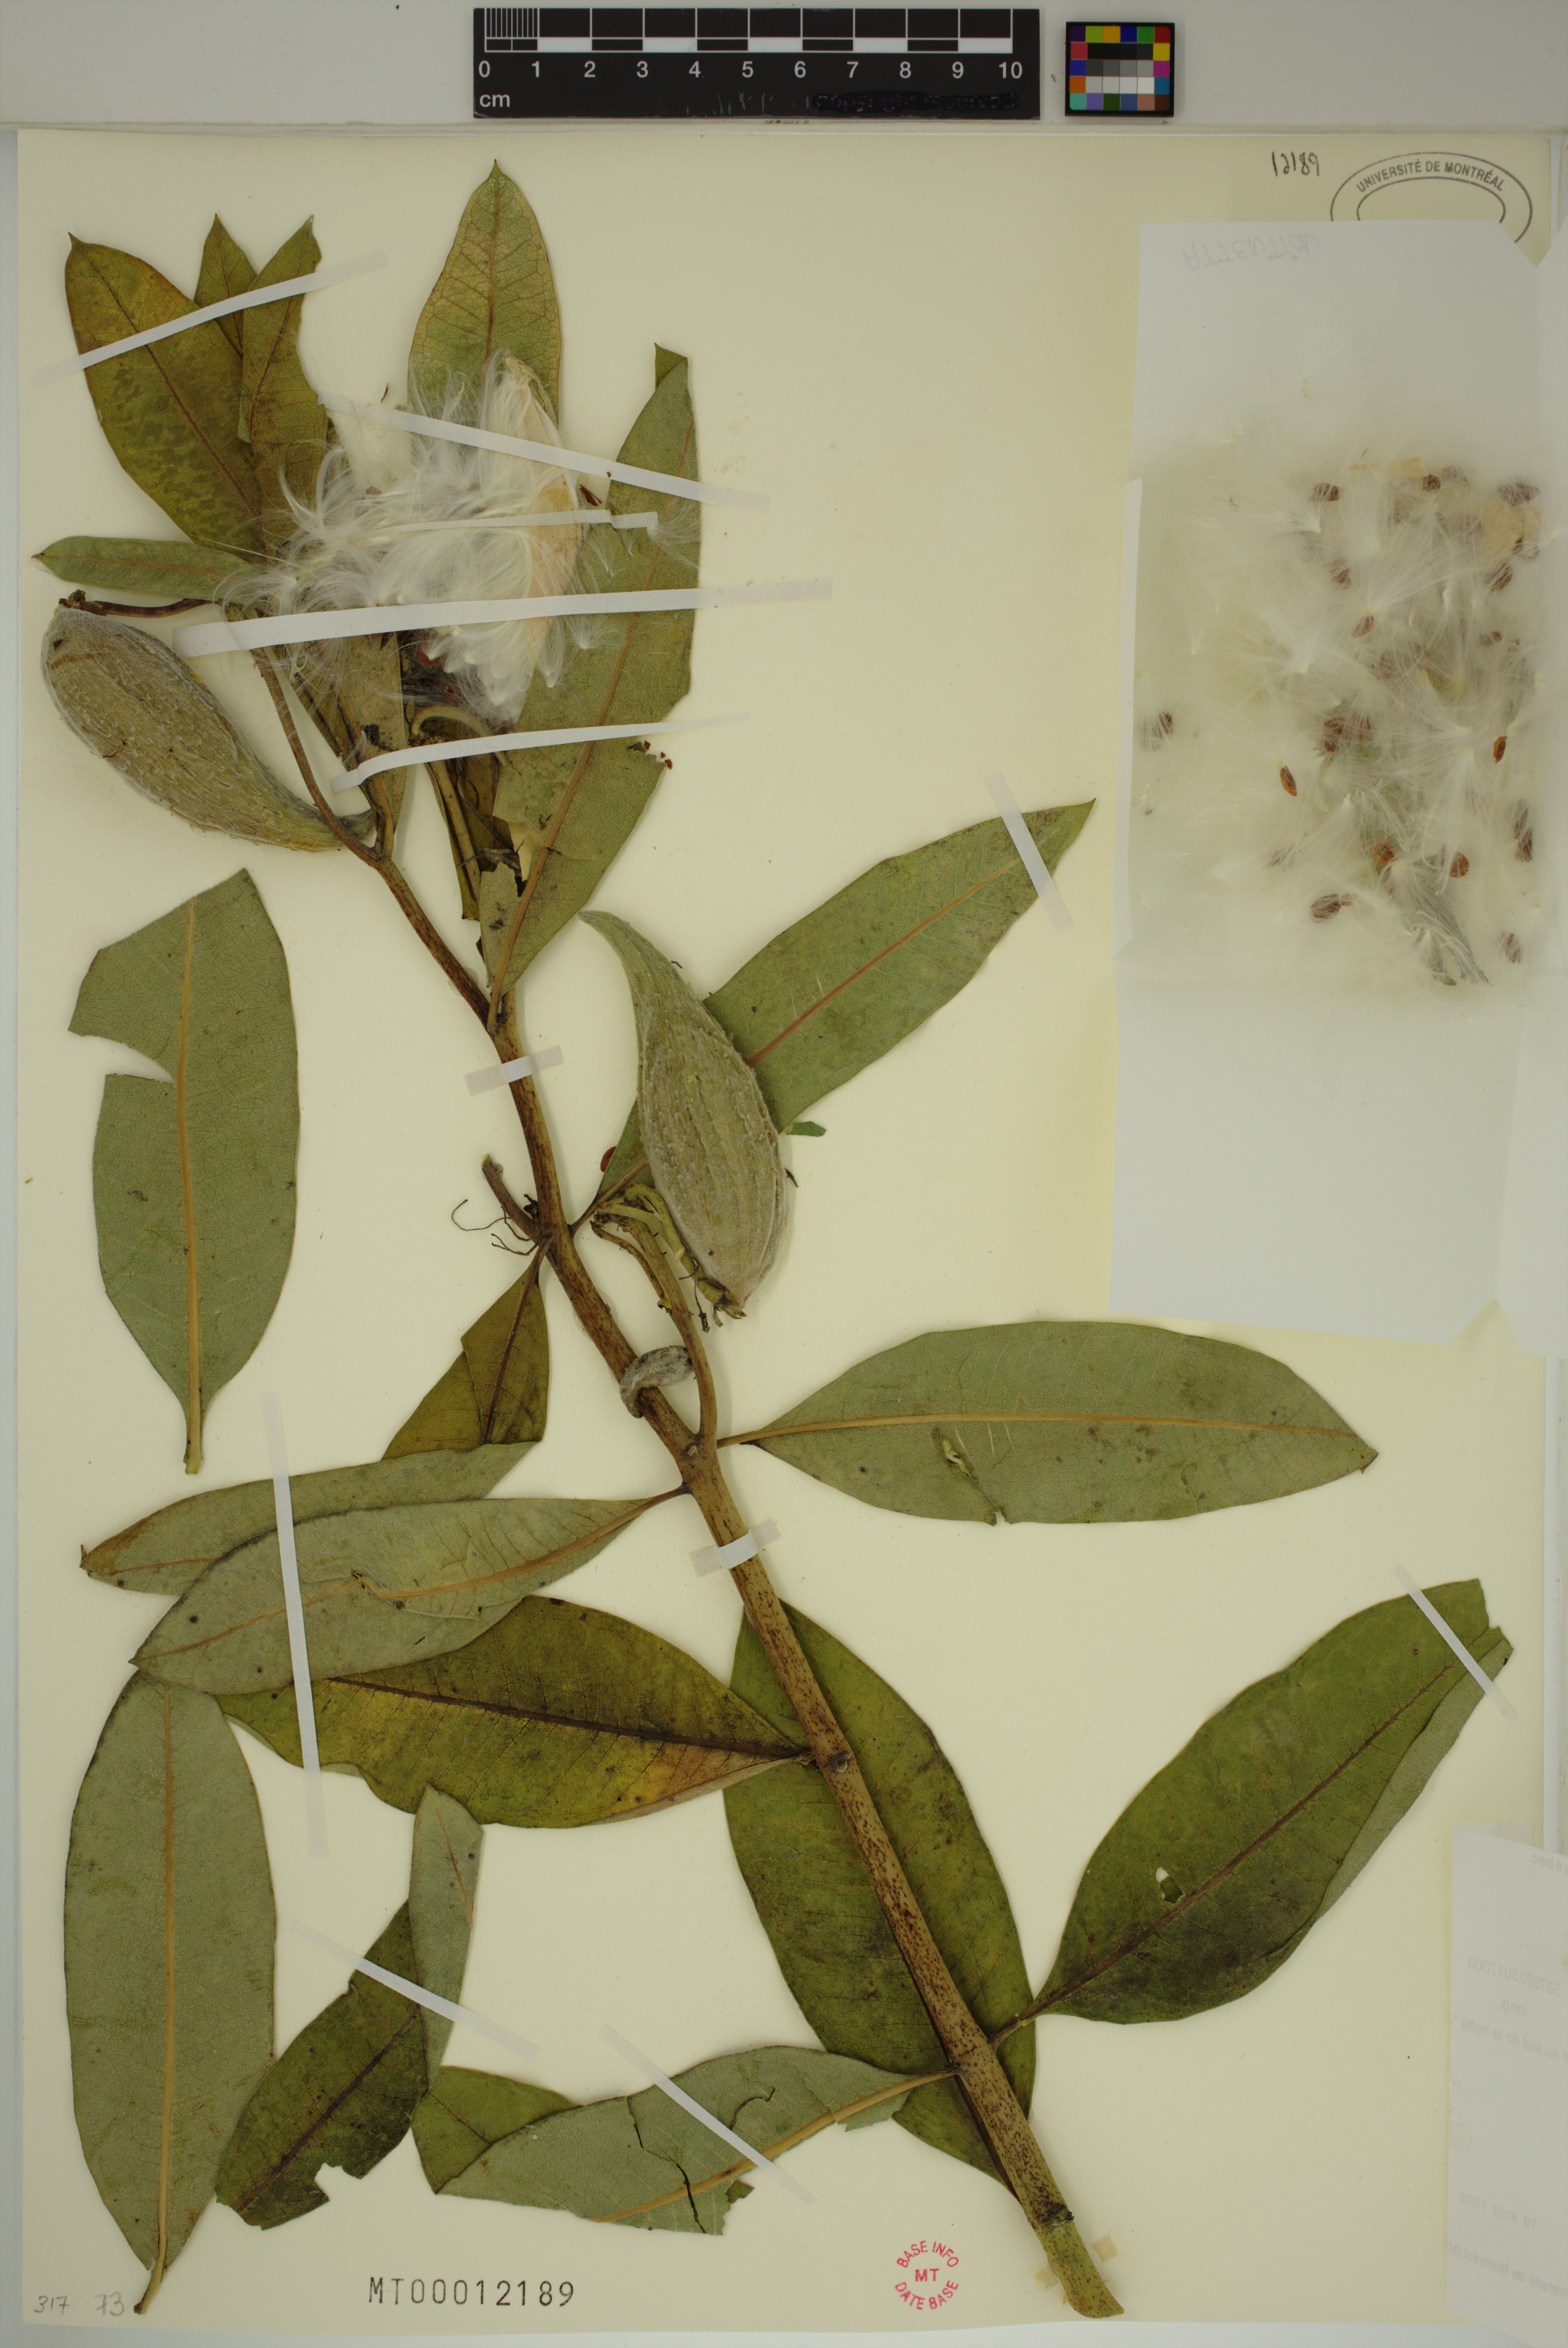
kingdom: Plantae
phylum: Tracheophyta
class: Magnoliopsida
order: Gentianales
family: Apocynaceae
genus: Asclepias
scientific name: Asclepias syriaca
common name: Common milkweed
